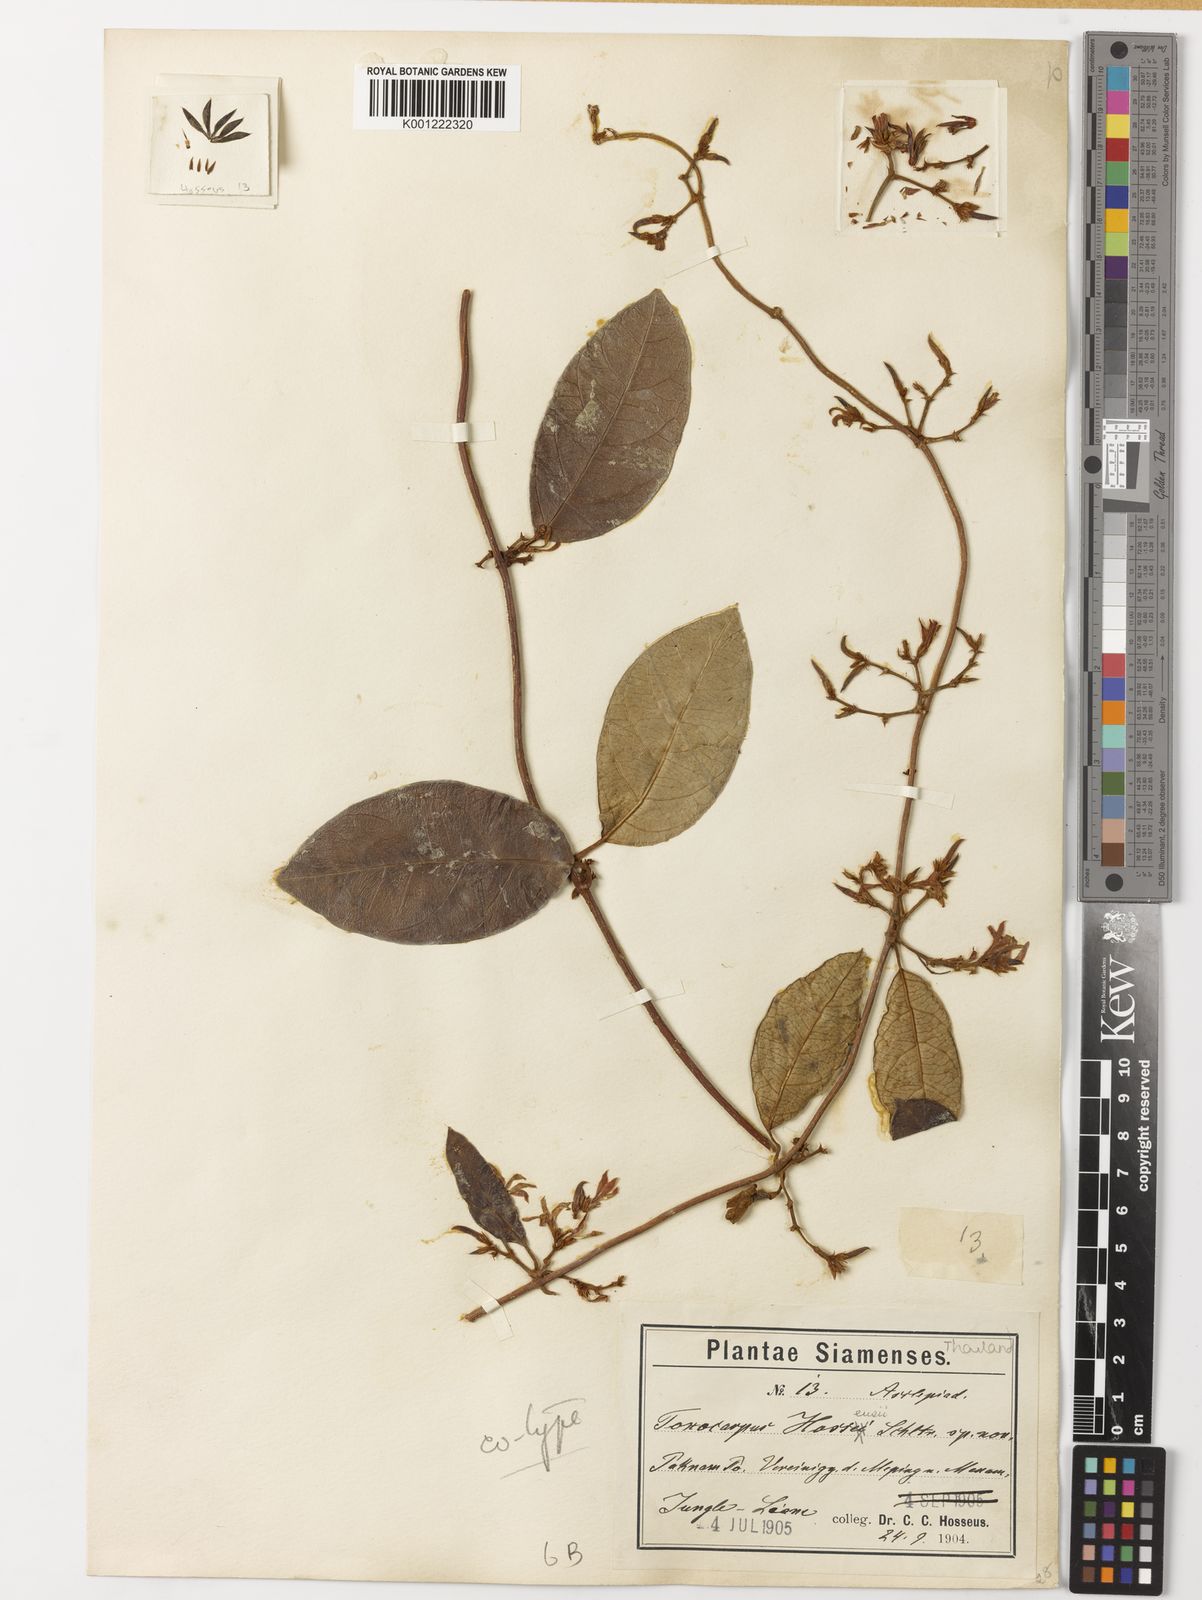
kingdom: Plantae
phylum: Tracheophyta
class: Magnoliopsida
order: Gentianales
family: Apocynaceae
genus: Toxocarpus
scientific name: Toxocarpus
